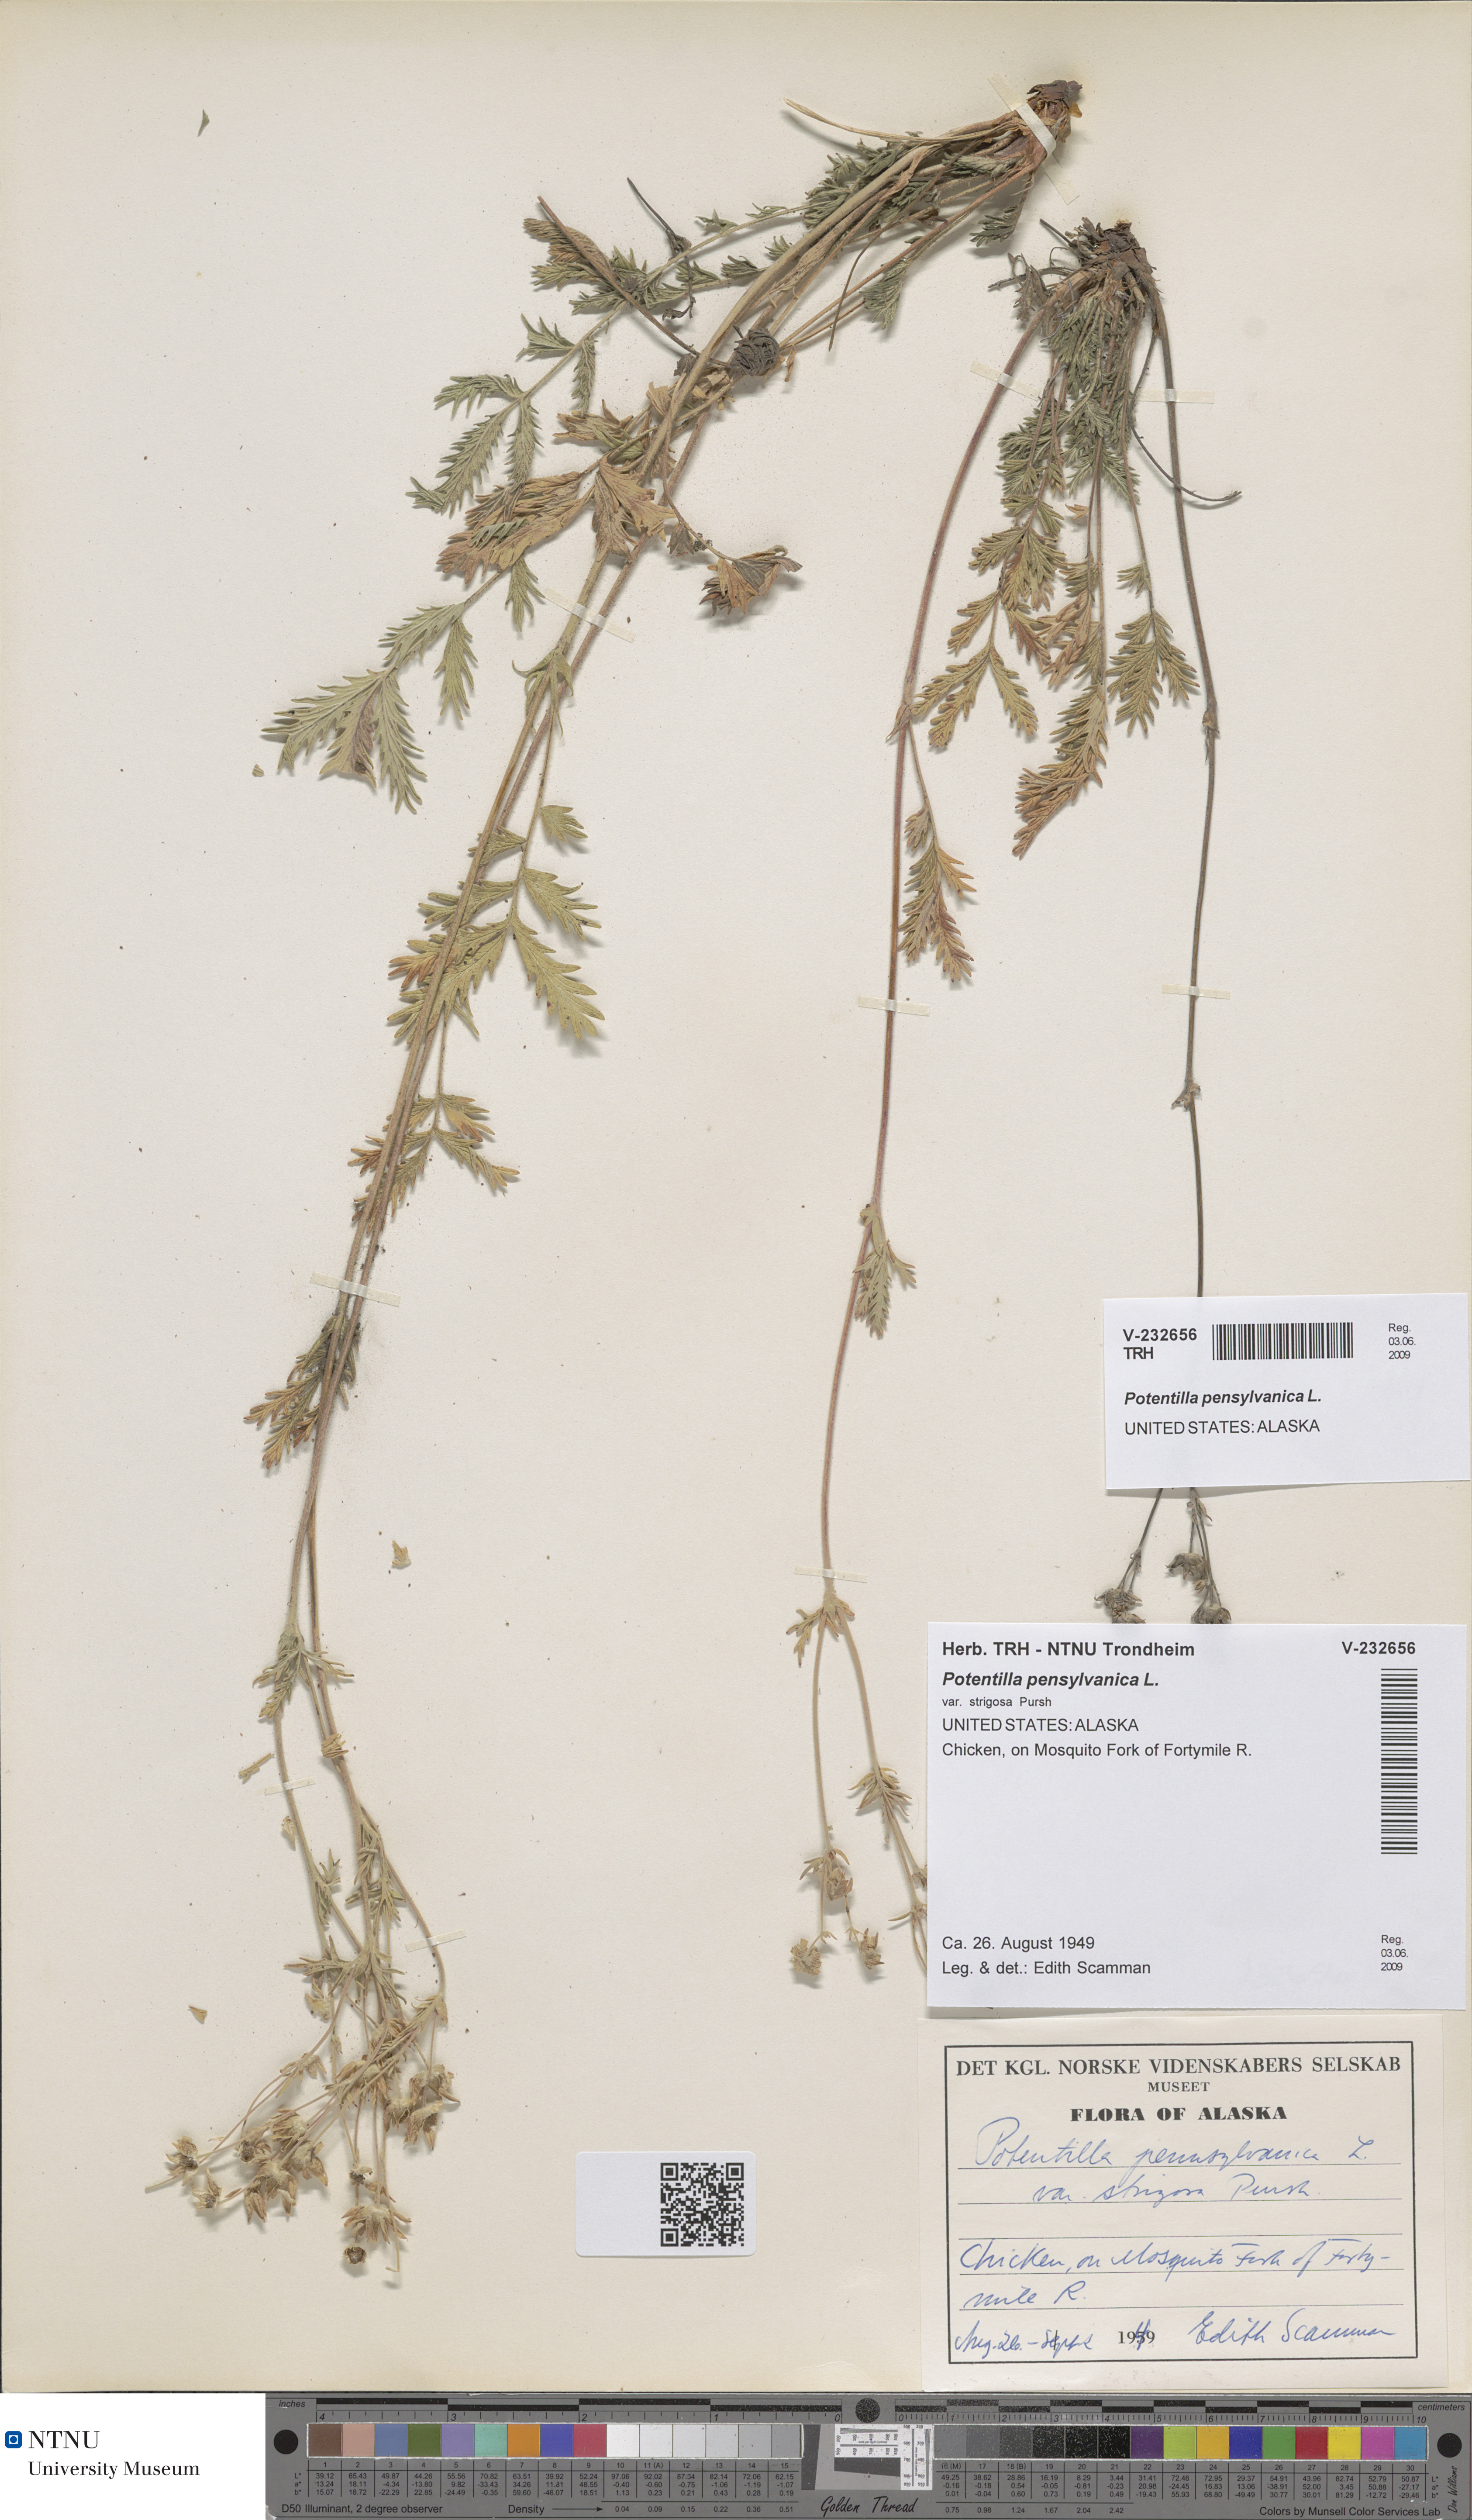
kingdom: Plantae
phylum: Tracheophyta
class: Magnoliopsida
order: Rosales
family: Rosaceae
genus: Potentilla
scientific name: Potentilla pensylvanica
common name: Pennsylvania cinquefoil
